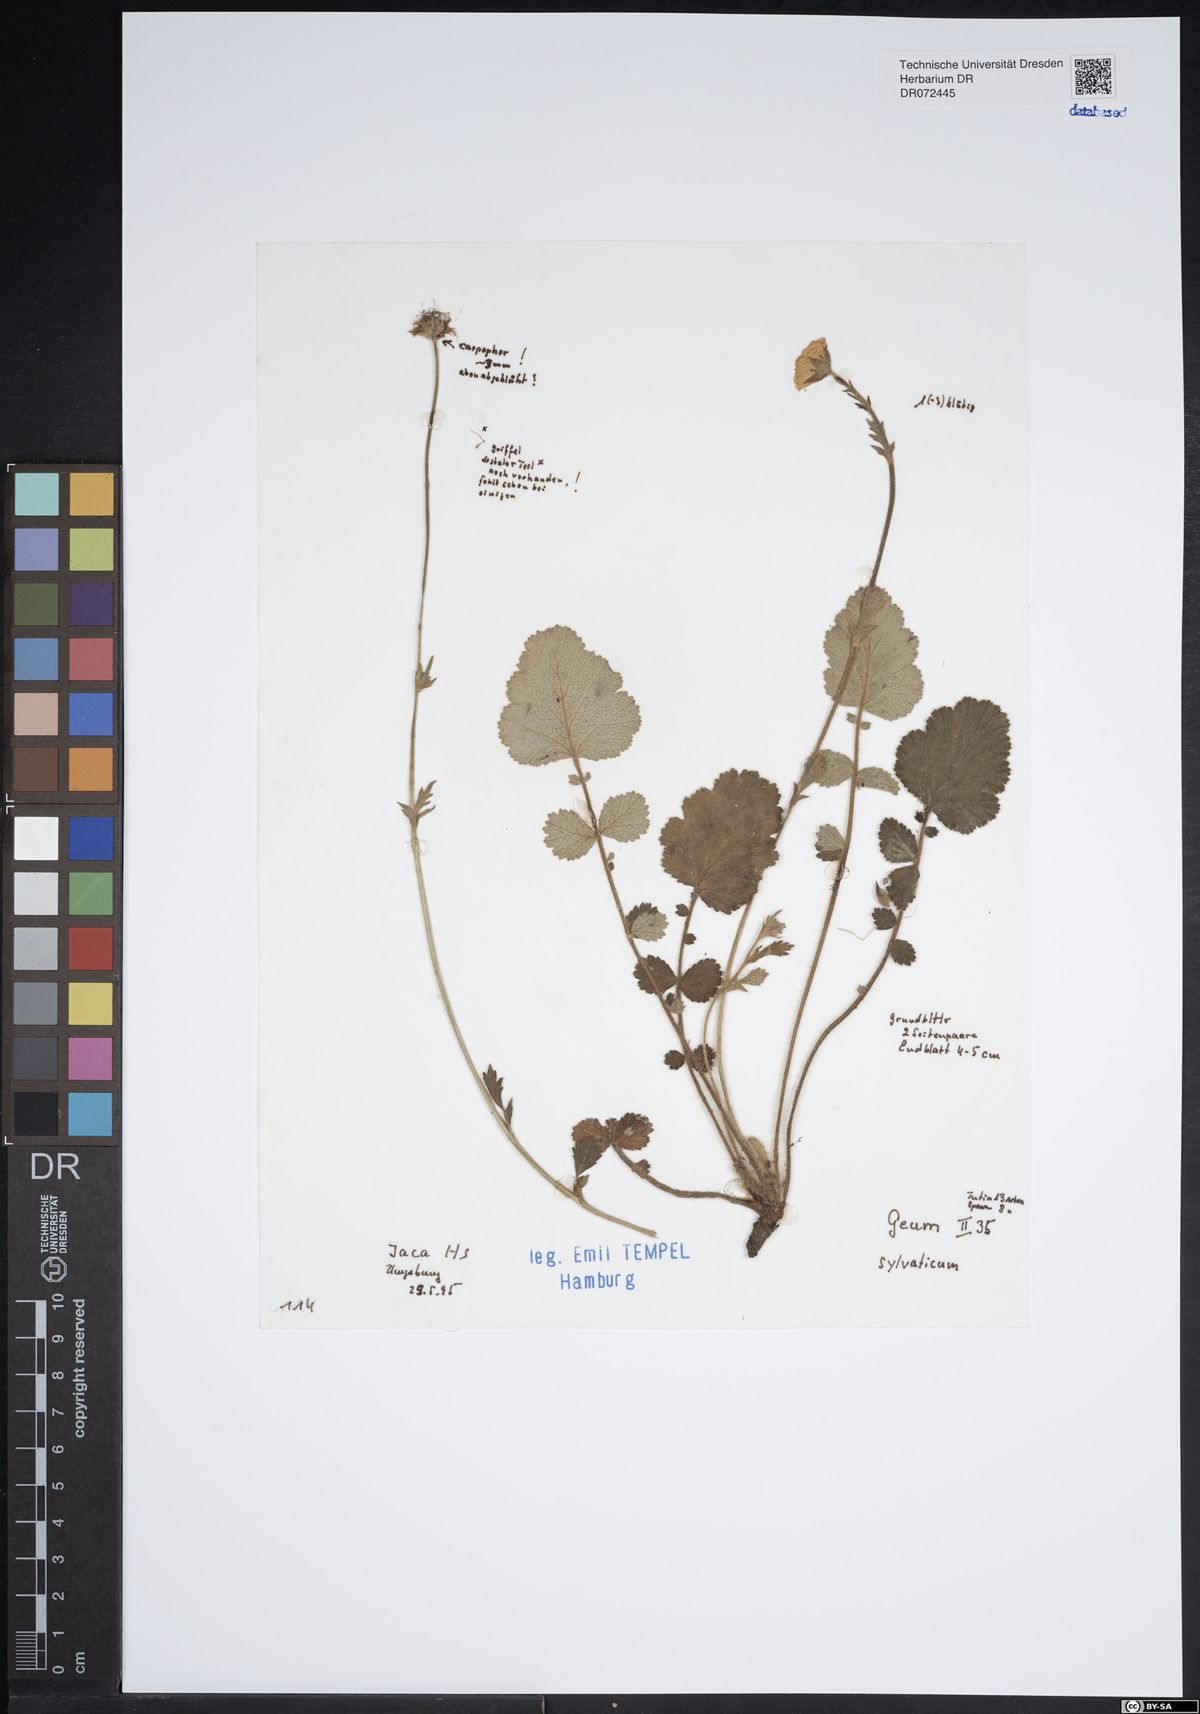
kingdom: Plantae
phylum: Tracheophyta
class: Magnoliopsida
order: Rosales
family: Rosaceae
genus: Geum
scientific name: Geum sylvaticum
